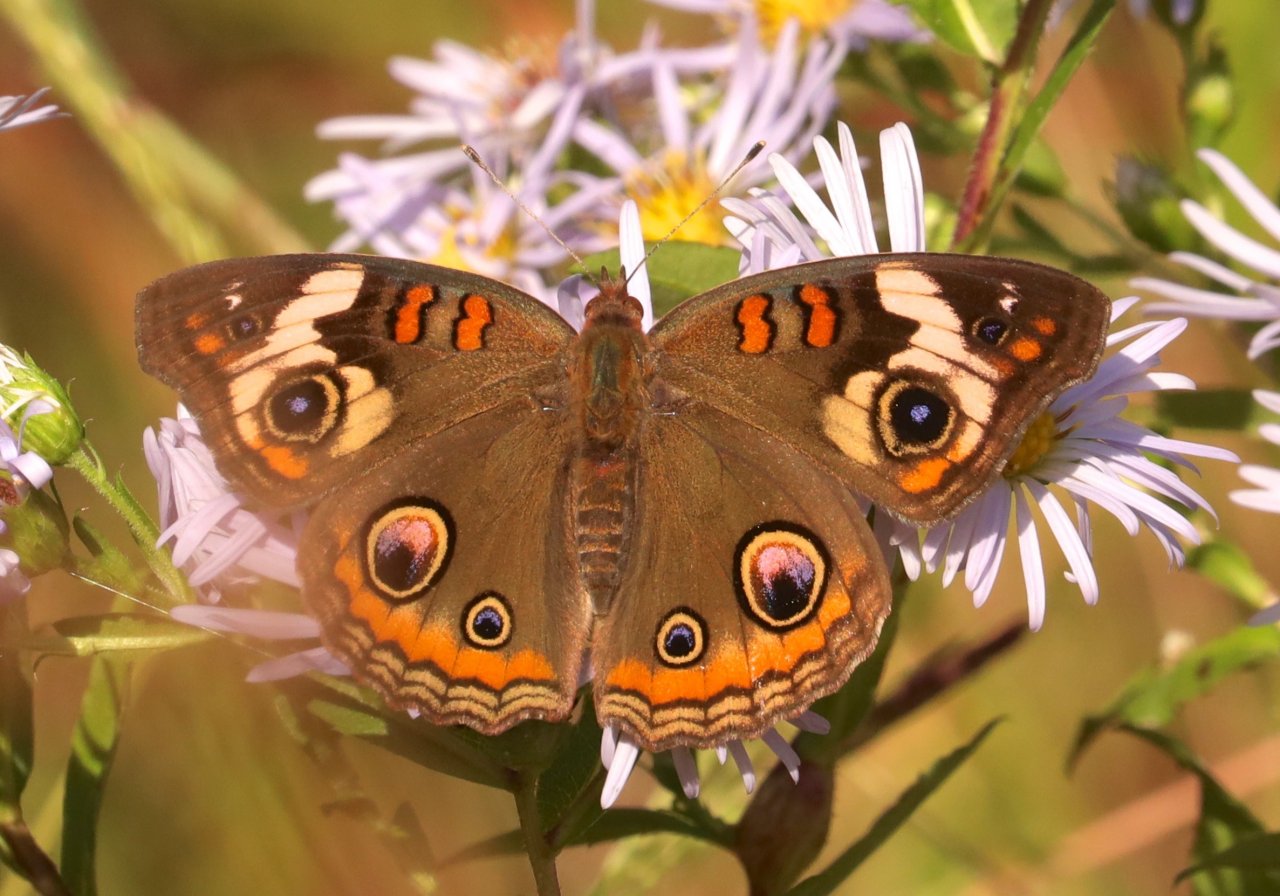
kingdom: Animalia
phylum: Arthropoda
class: Insecta
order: Lepidoptera
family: Nymphalidae
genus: Junonia
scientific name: Junonia coenia
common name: Common Buckeye
